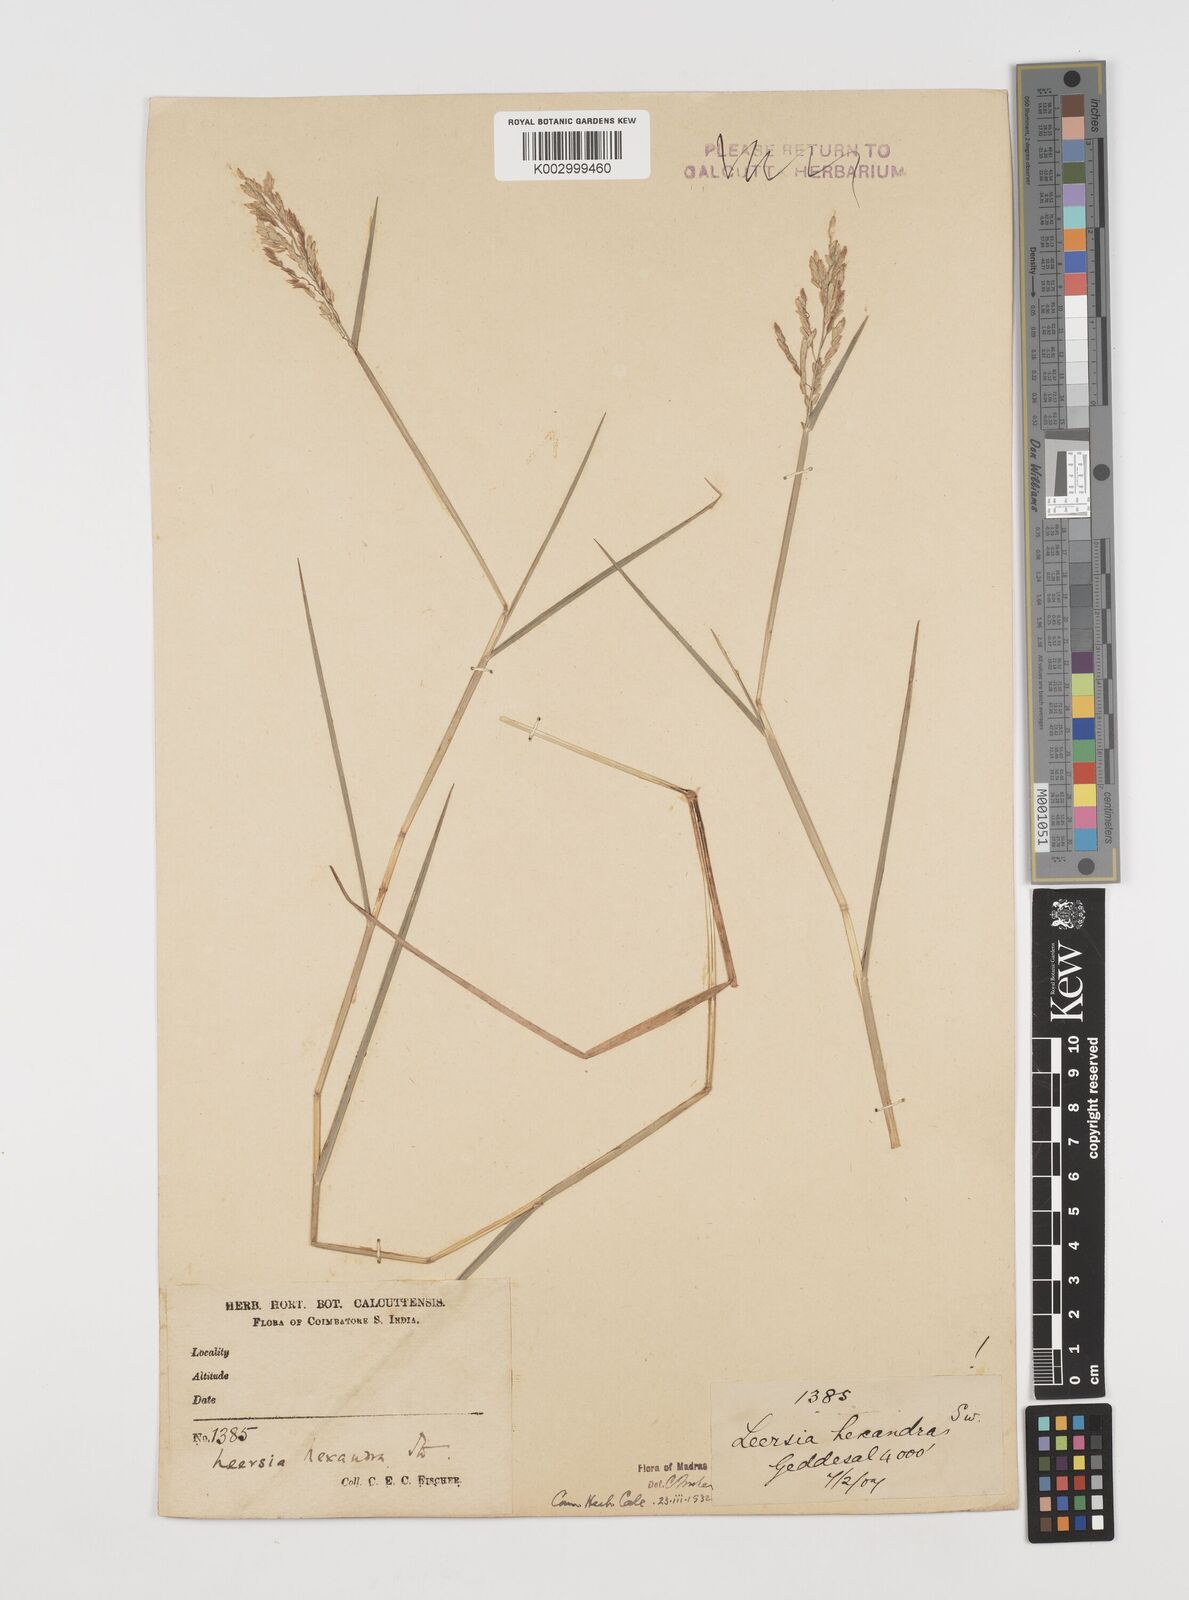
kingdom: Plantae
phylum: Tracheophyta
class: Liliopsida
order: Poales
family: Poaceae
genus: Leersia
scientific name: Leersia hexandra
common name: Southern cut grass
